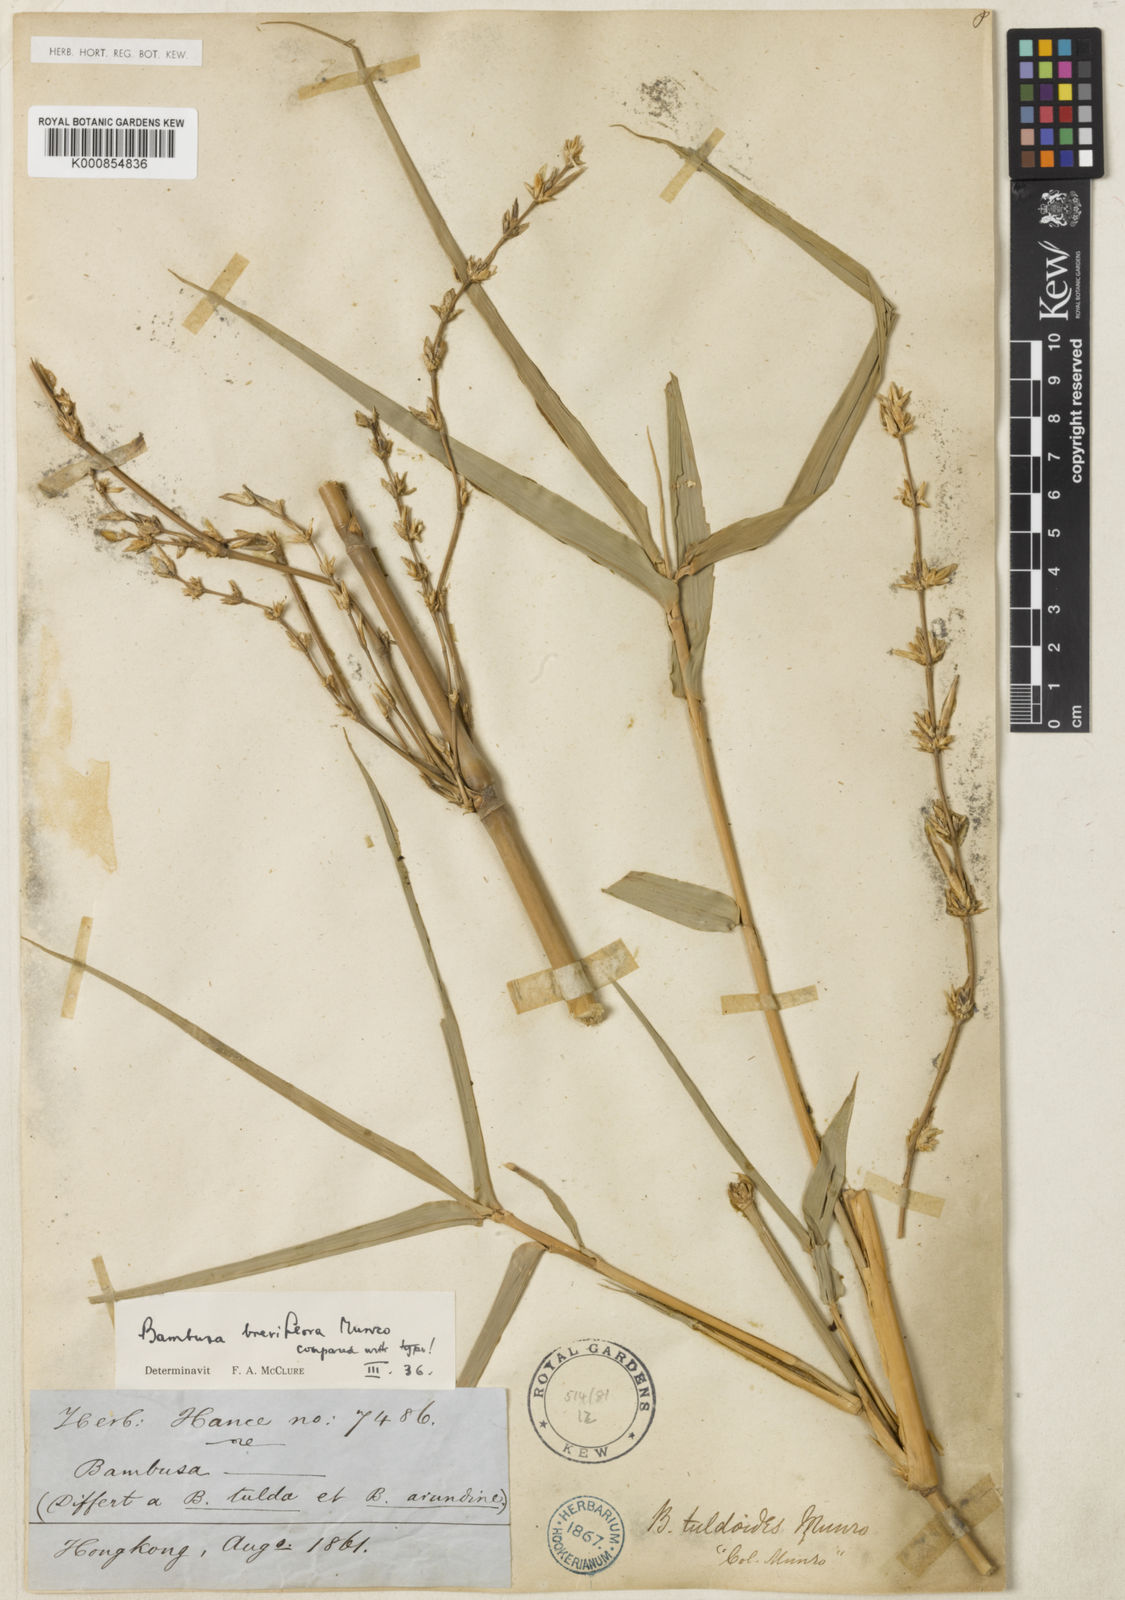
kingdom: Plantae
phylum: Tracheophyta
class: Liliopsida
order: Poales
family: Poaceae
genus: Bambusa
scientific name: Bambusa tuldoides
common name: Verdant bamboo
